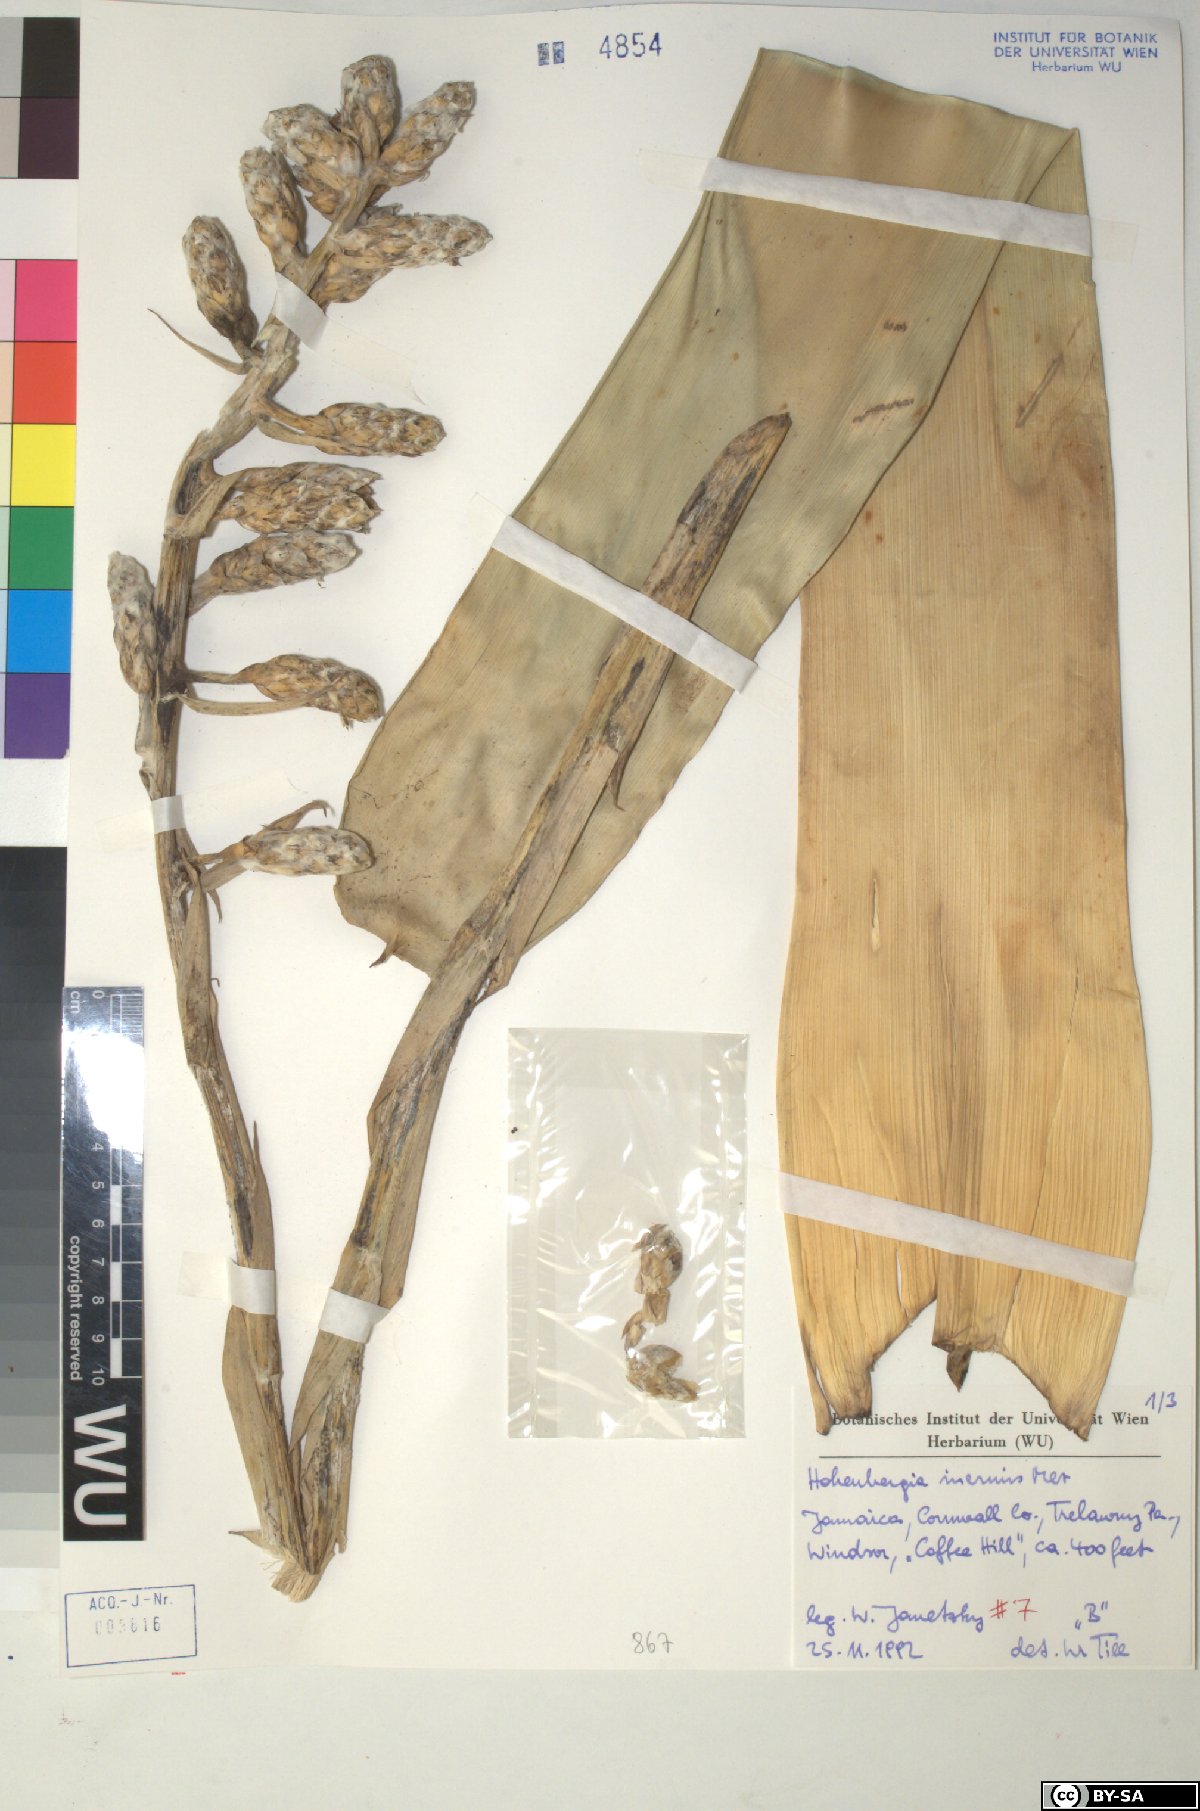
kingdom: Plantae
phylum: Tracheophyta
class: Liliopsida
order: Poales
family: Bromeliaceae
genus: Wittmackia
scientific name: Wittmackia inermis
